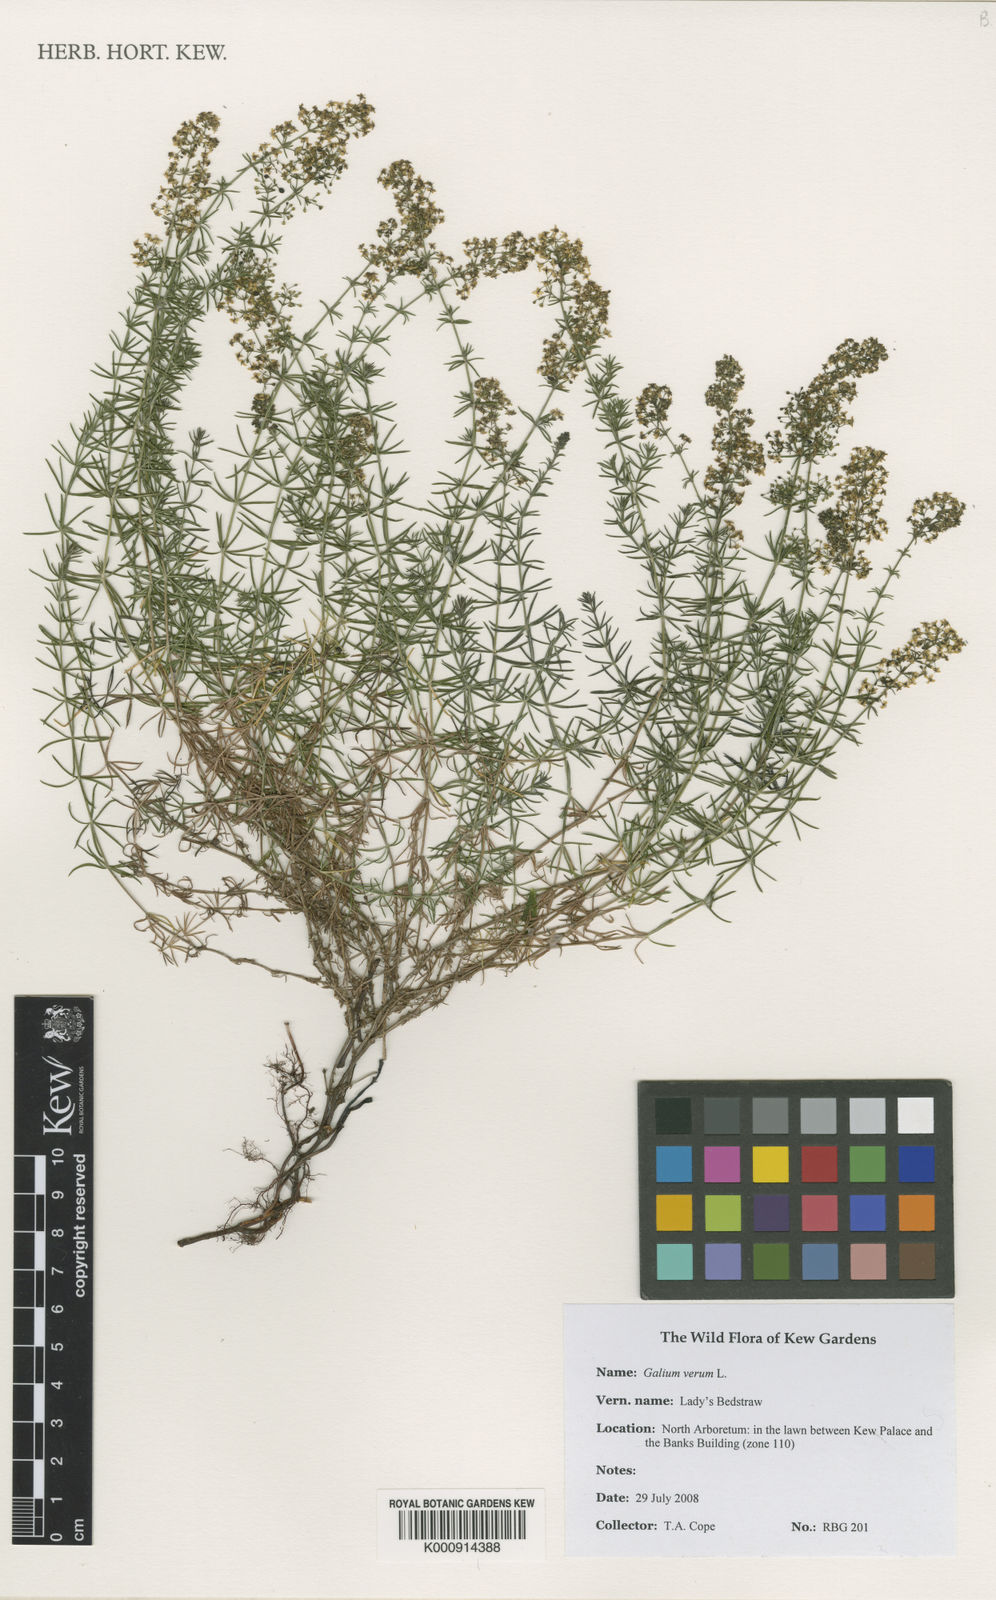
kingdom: Plantae
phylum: Tracheophyta
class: Magnoliopsida
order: Gentianales
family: Rubiaceae
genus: Galium
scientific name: Galium verum
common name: Lady's bedstraw
